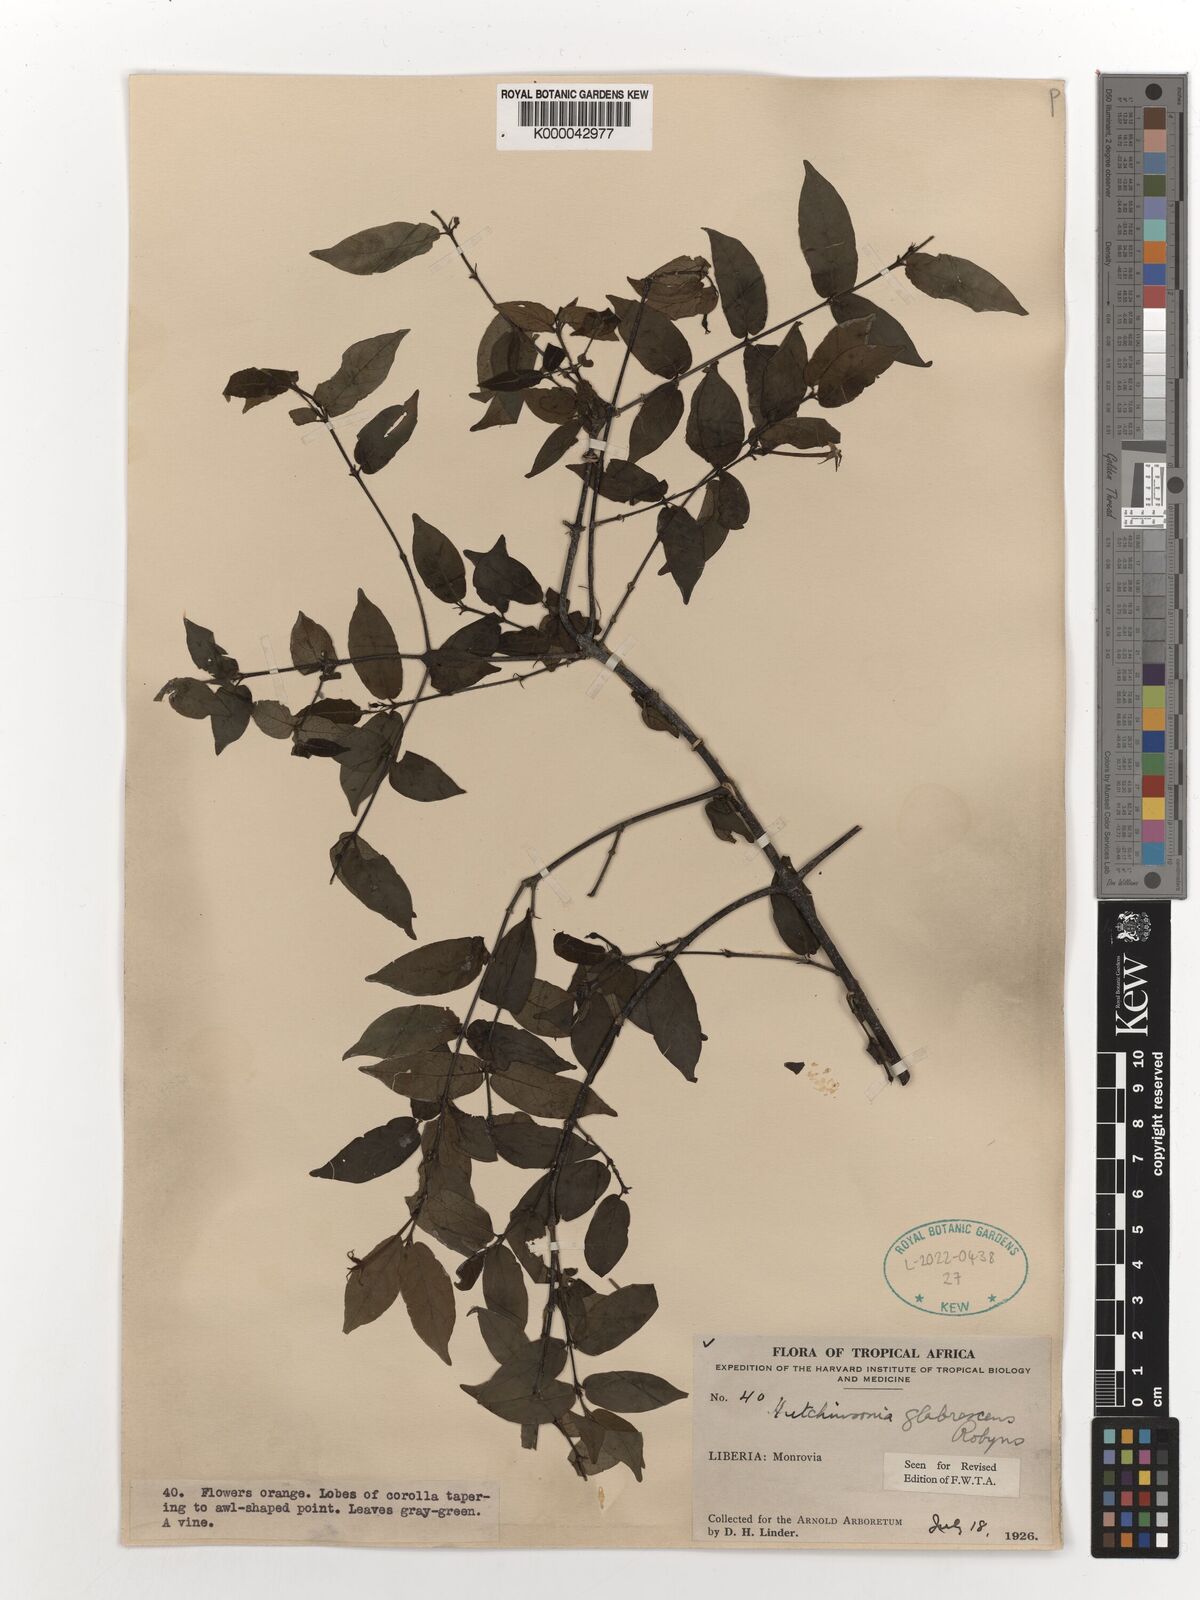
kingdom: Plantae
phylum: Tracheophyta
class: Magnoliopsida
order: Gentianales
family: Rubiaceae
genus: Hutchinsonia
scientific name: Hutchinsonia glabrescens
